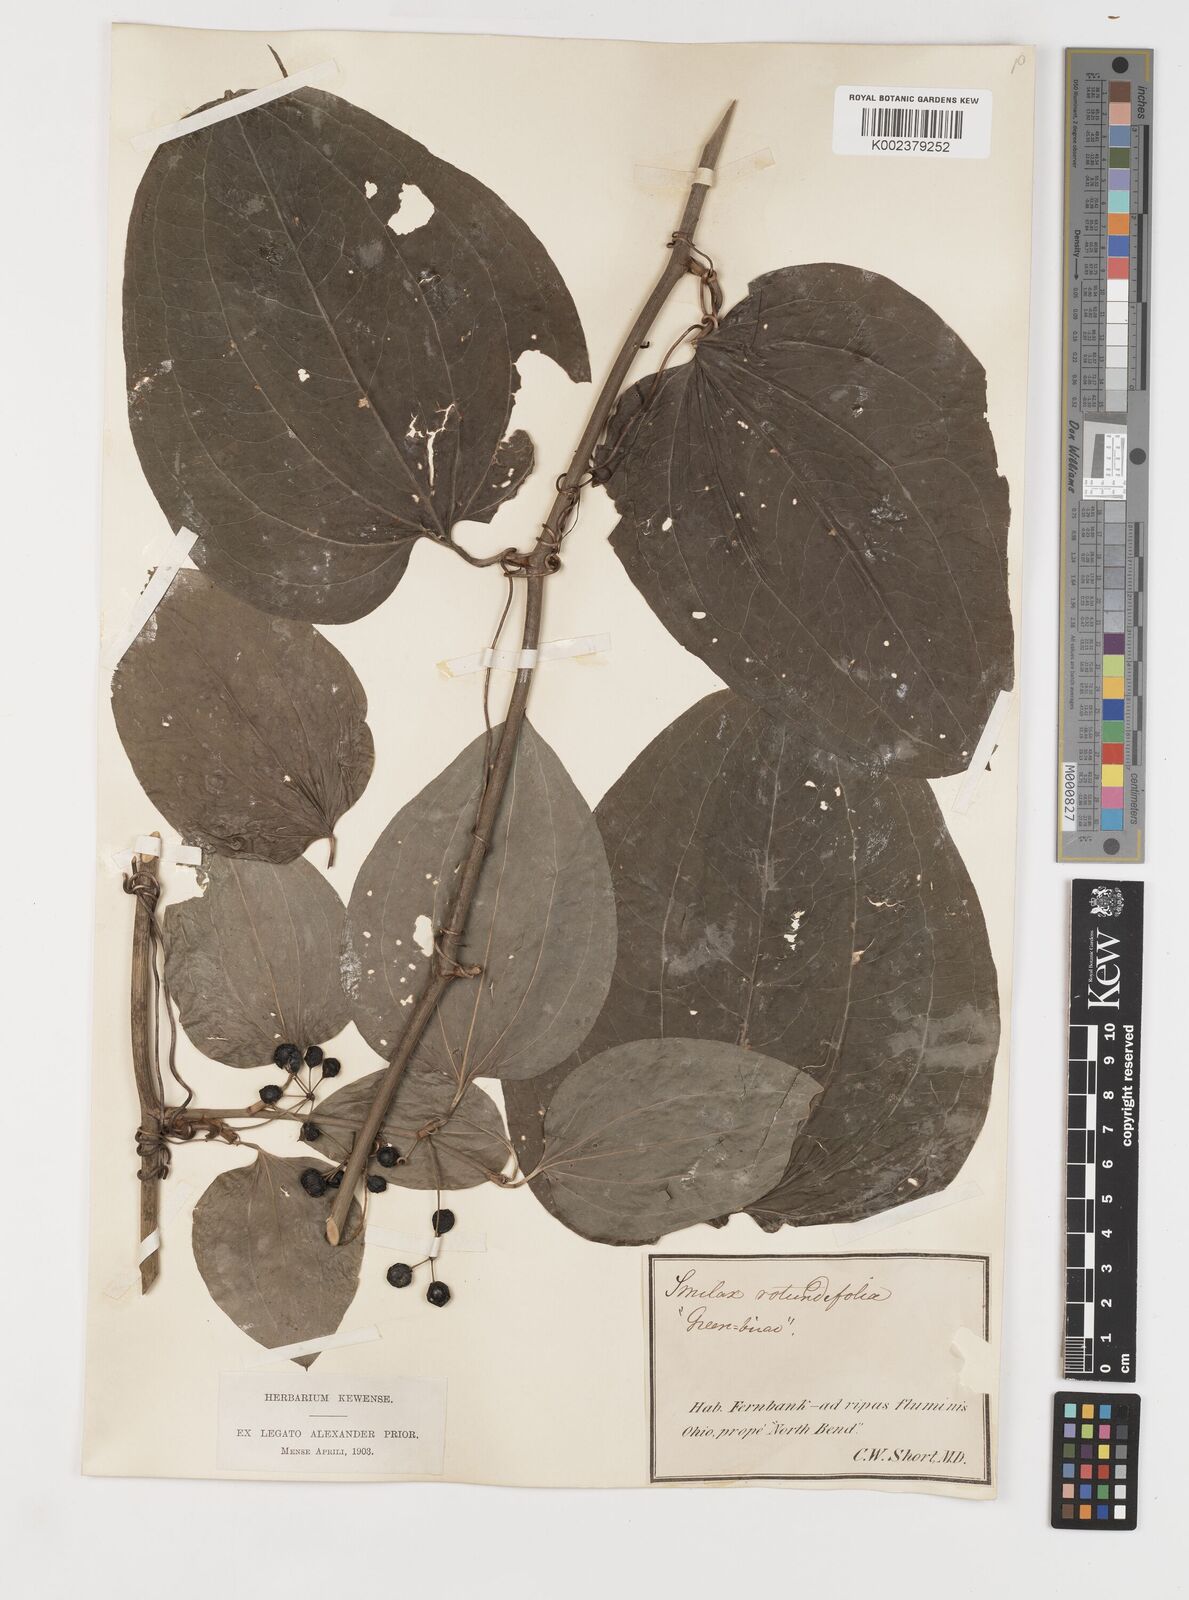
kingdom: Plantae
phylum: Tracheophyta
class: Liliopsida
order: Liliales
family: Smilacaceae
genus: Smilax
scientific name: Smilax rotundifolia
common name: Bullbriar
